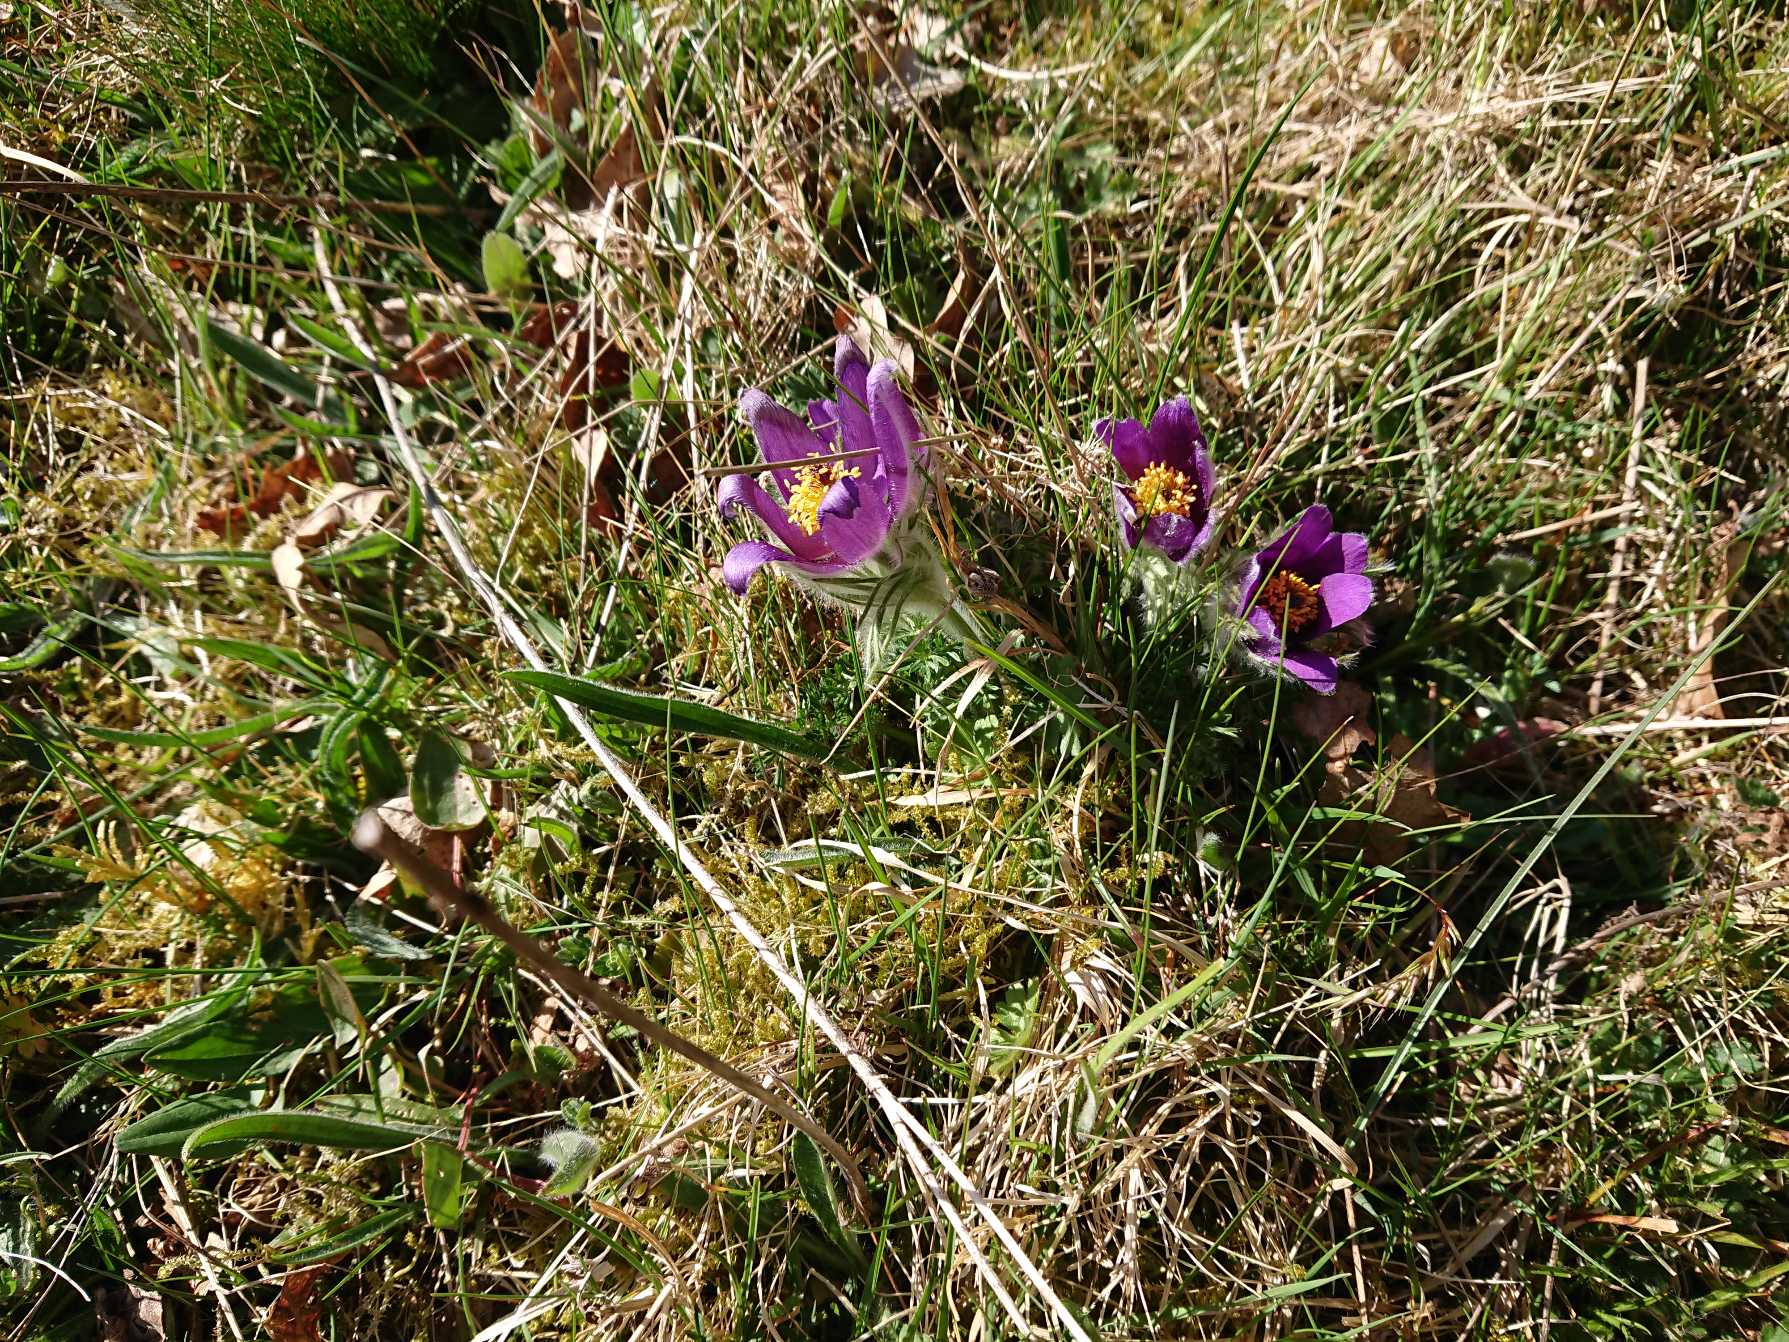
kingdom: Plantae
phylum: Tracheophyta
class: Magnoliopsida
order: Ranunculales
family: Ranunculaceae
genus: Pulsatilla
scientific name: Pulsatilla vulgaris
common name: Opret kobjælde
